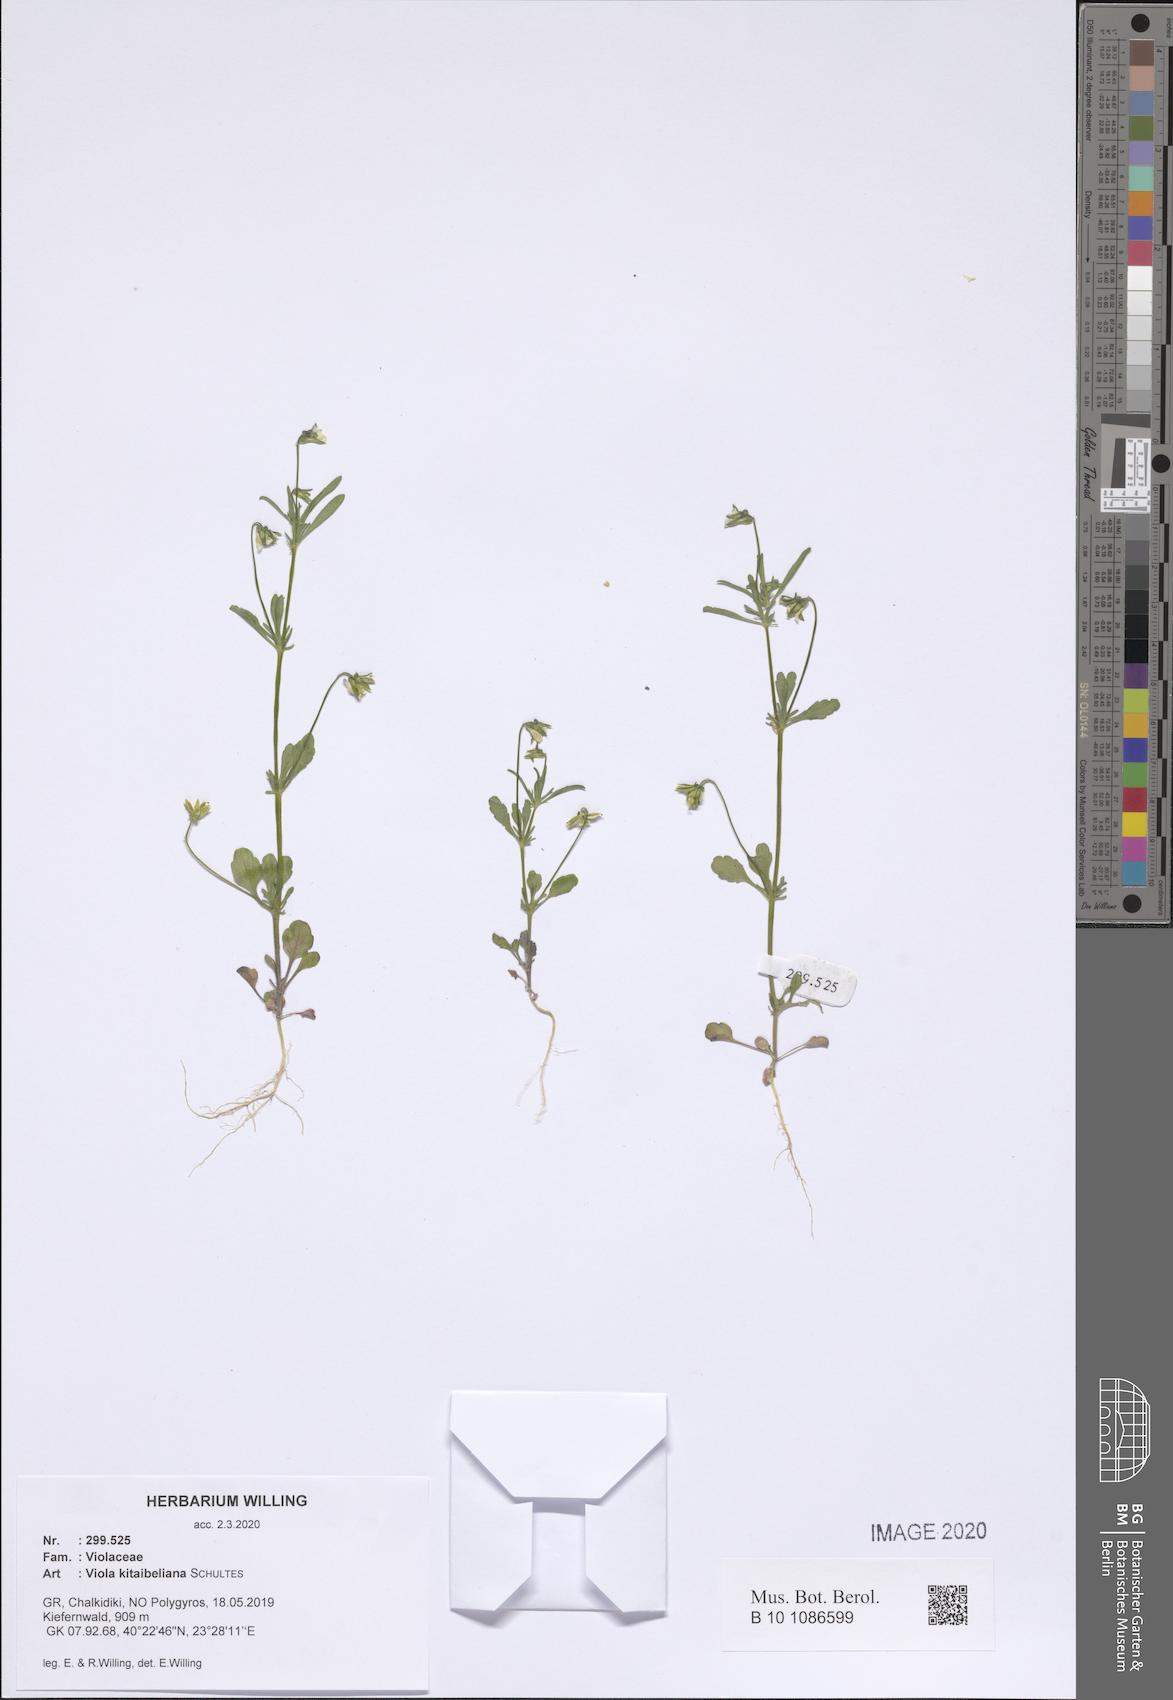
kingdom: Plantae
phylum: Tracheophyta
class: Magnoliopsida
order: Malpighiales
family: Violaceae
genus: Viola
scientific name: Viola kitaibeliana
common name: Dwarf pansy
